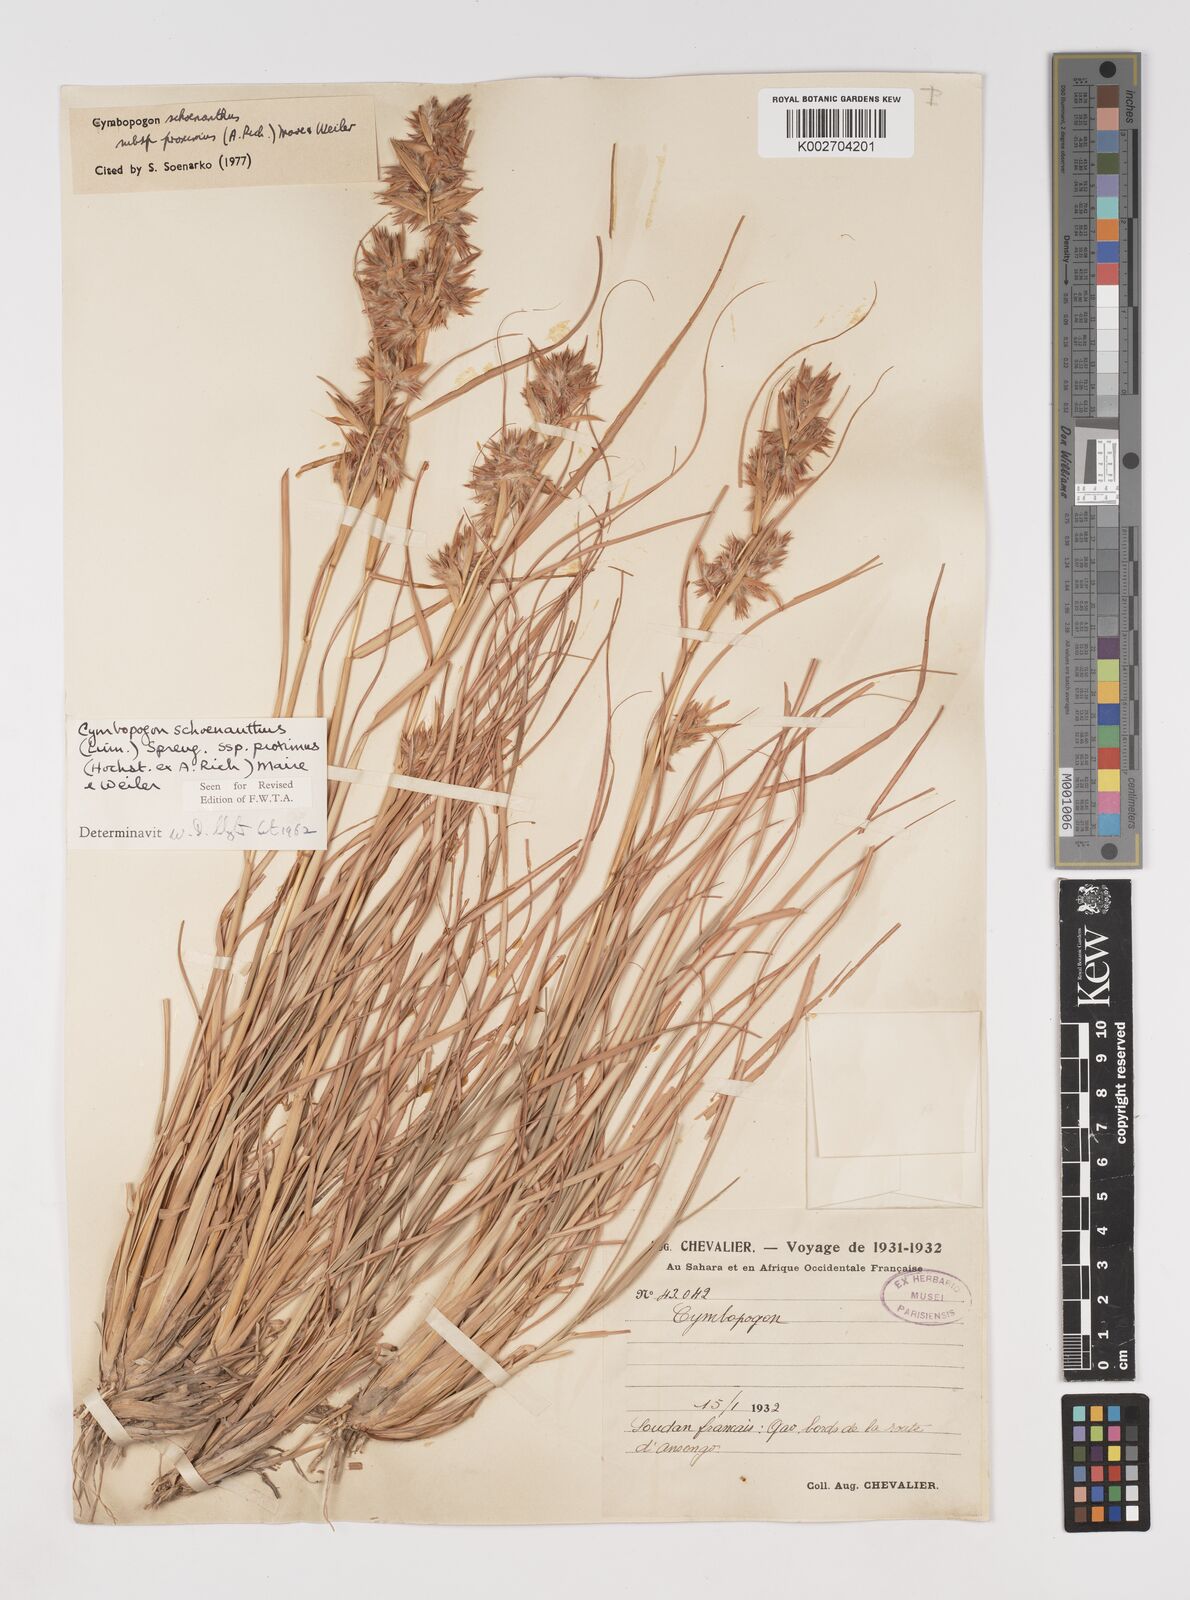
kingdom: Plantae
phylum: Tracheophyta
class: Liliopsida
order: Poales
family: Poaceae
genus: Cymbopogon
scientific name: Cymbopogon schoenanthus
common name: Geranium grass
